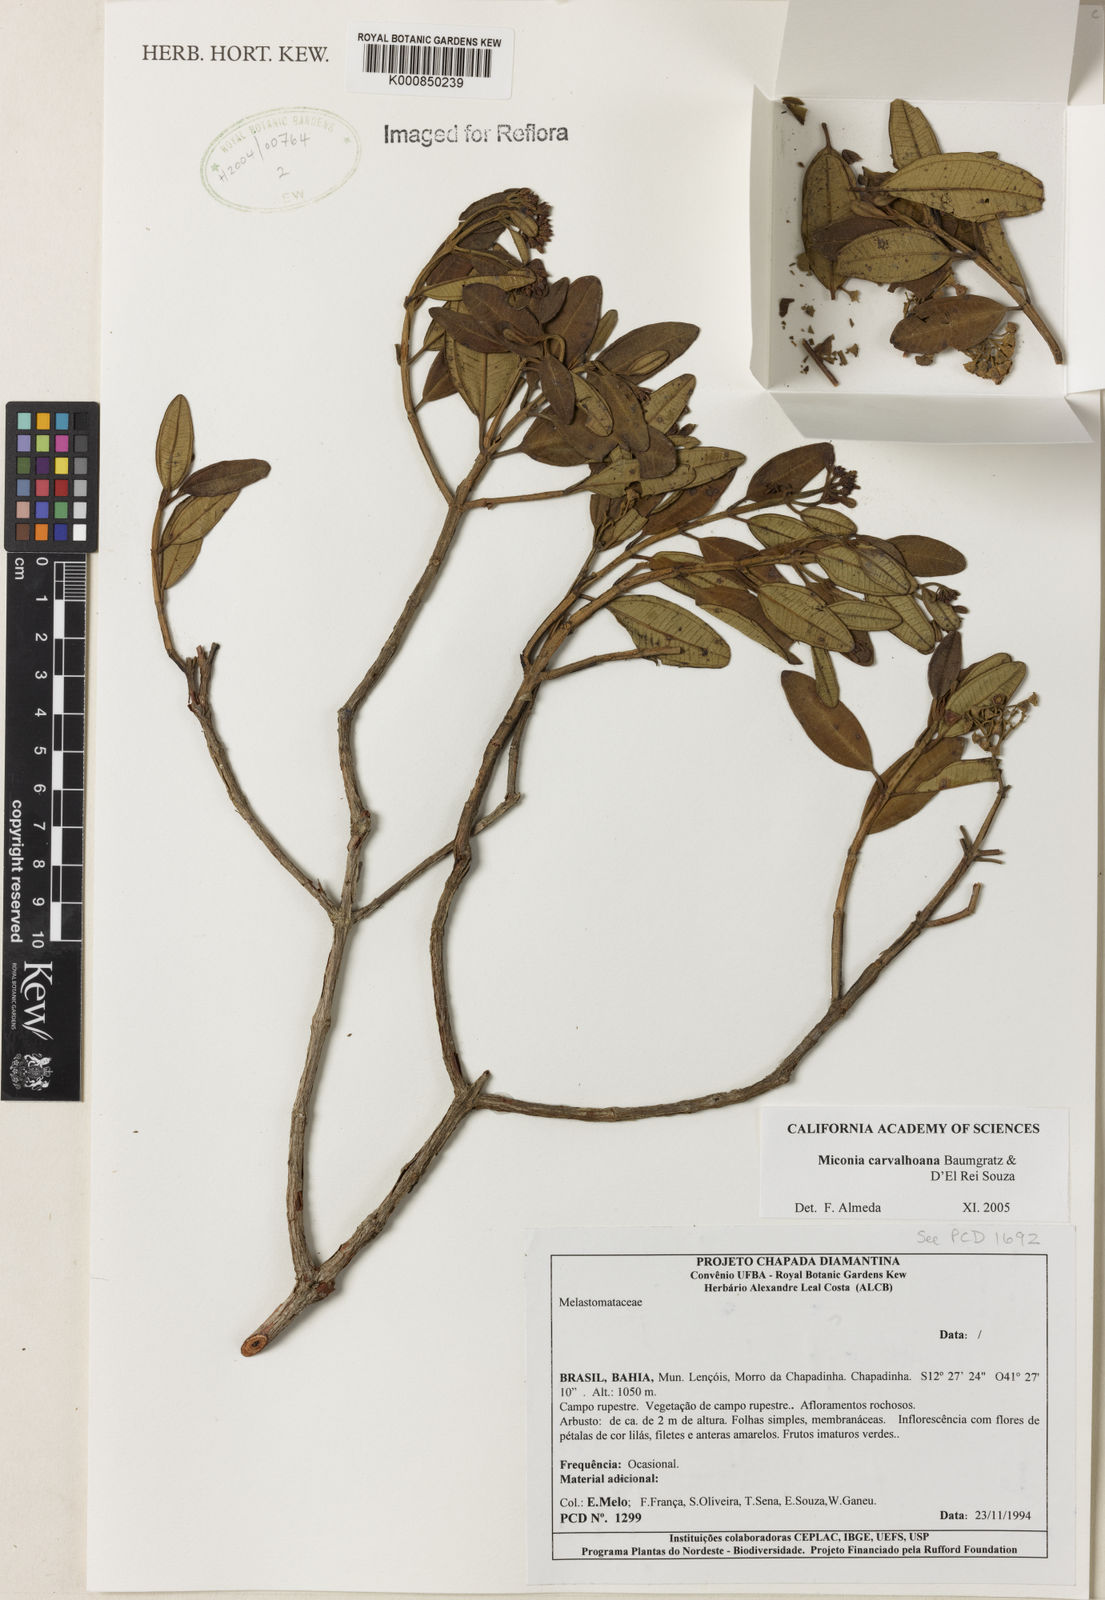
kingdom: Plantae
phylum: Tracheophyta
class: Magnoliopsida
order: Myrtales
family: Melastomataceae
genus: Rupestrea
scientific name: Rupestrea carvalhoana
